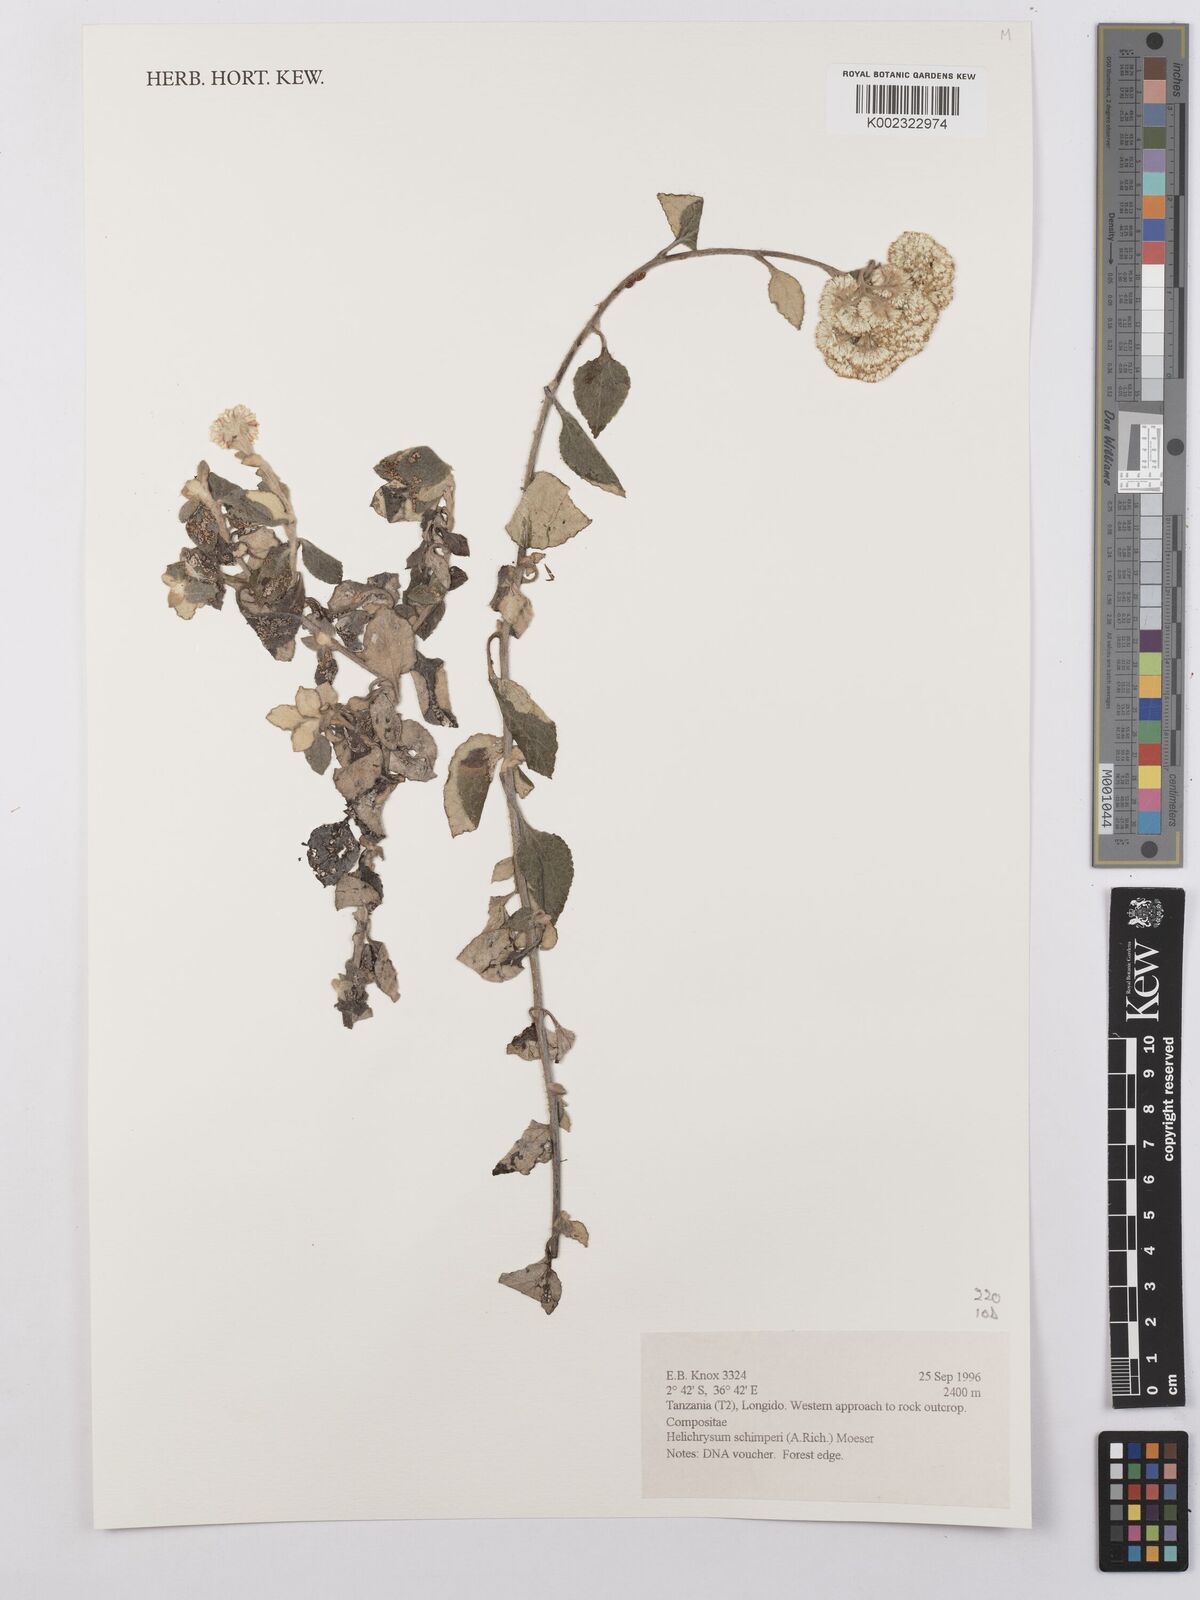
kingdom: Plantae
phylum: Tracheophyta
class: Magnoliopsida
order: Asterales
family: Asteraceae
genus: Helichrysum
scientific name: Helichrysum schimperi
